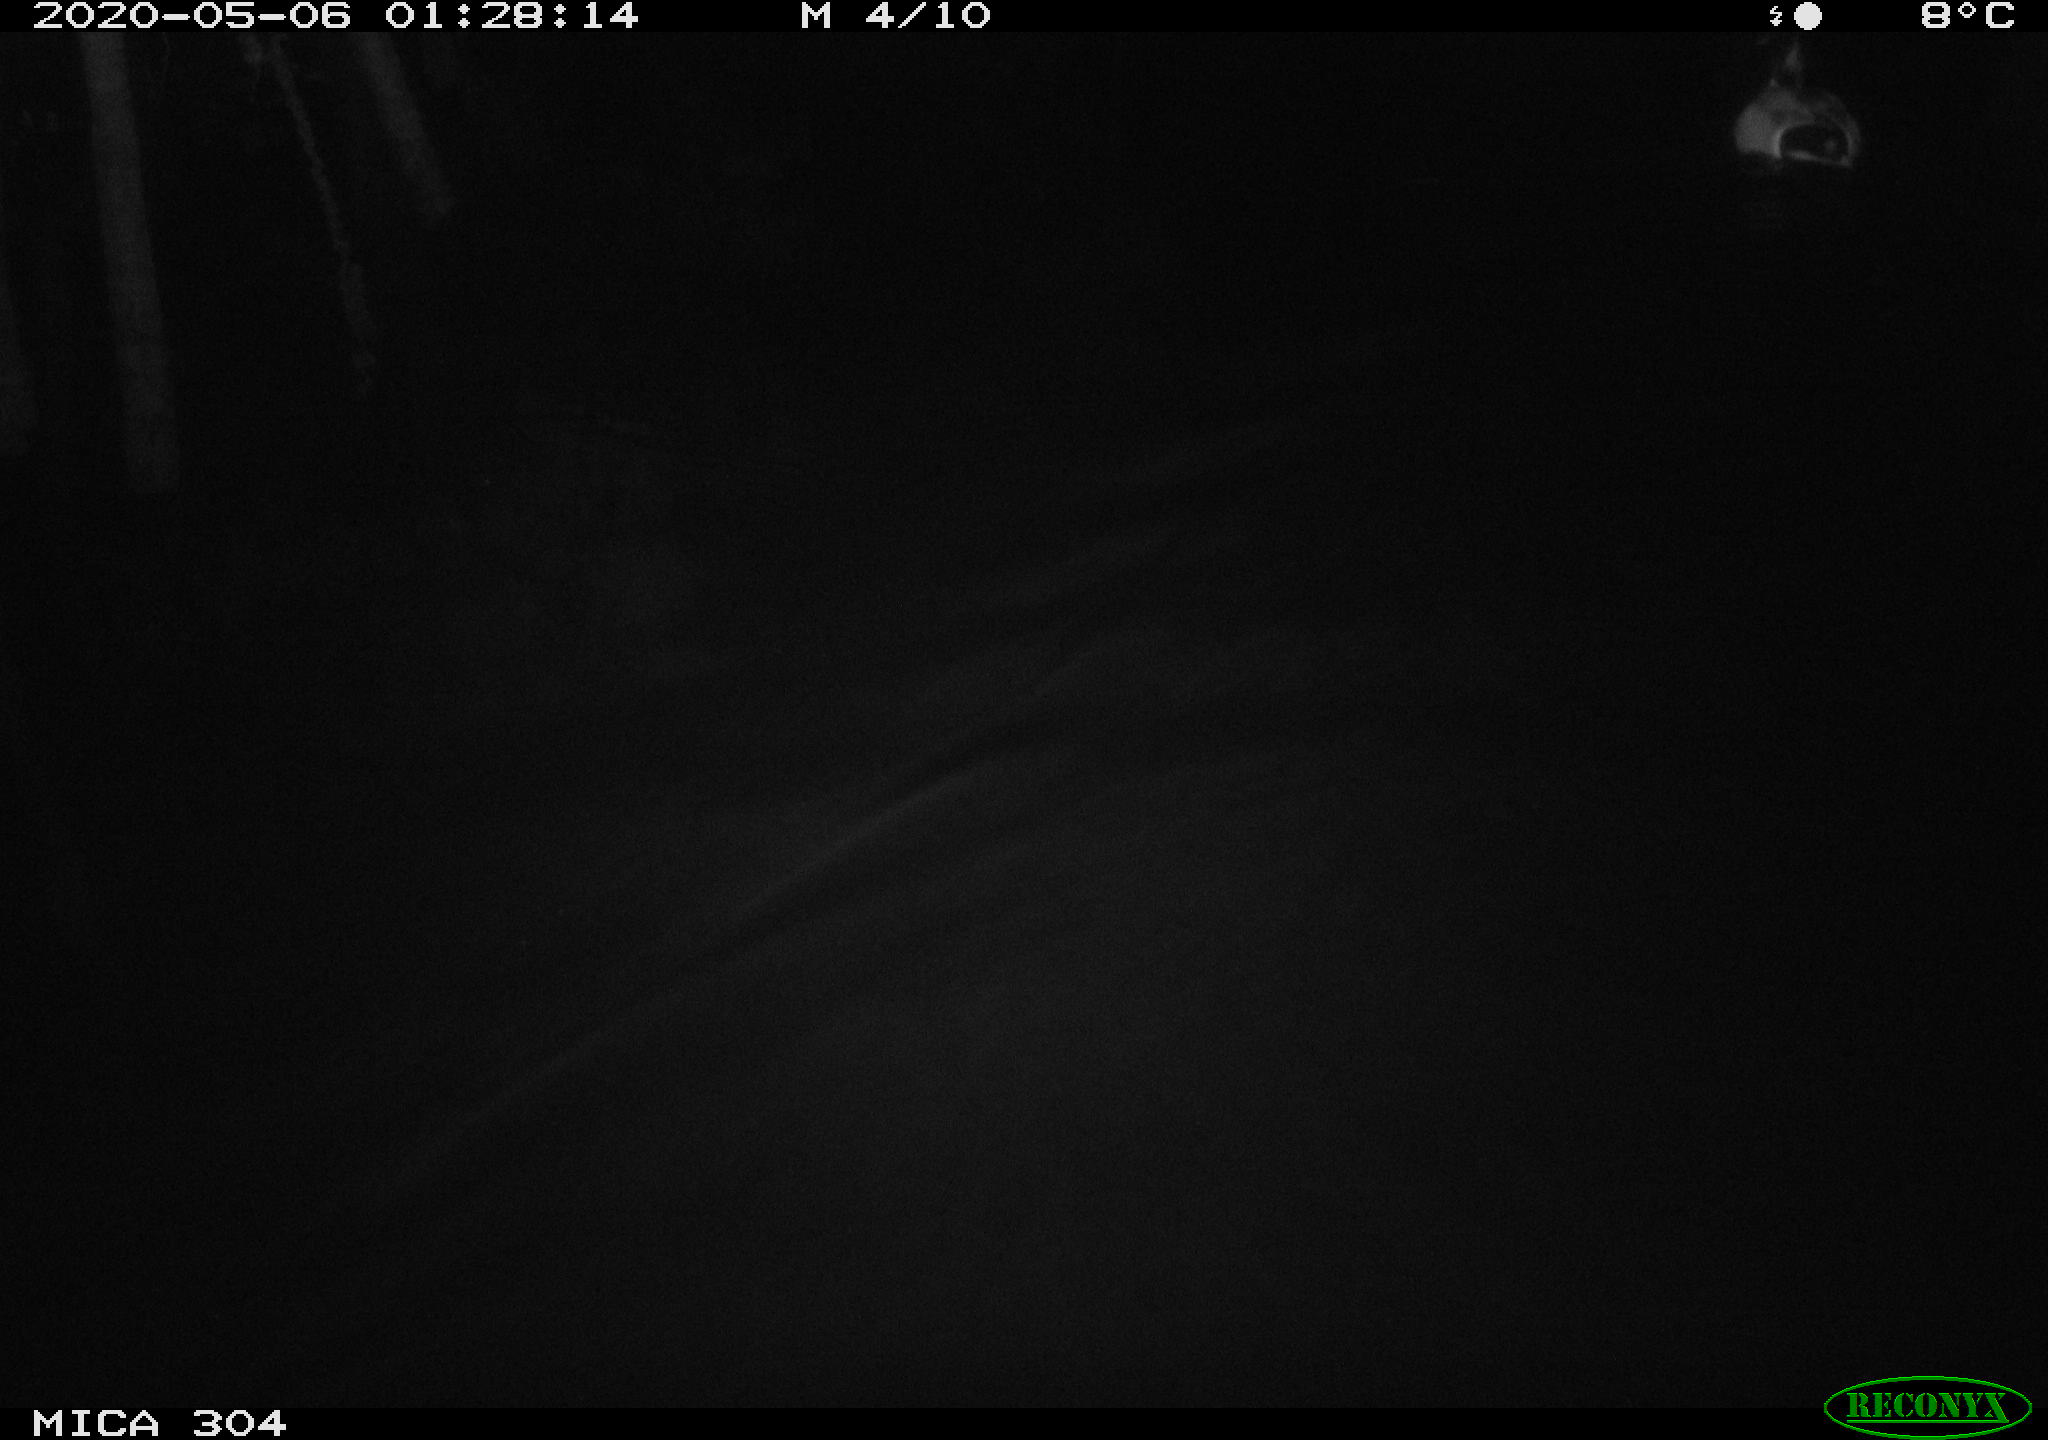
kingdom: Animalia
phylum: Chordata
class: Aves
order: Anseriformes
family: Anatidae
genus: Anas
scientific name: Anas platyrhynchos
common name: Mallard
